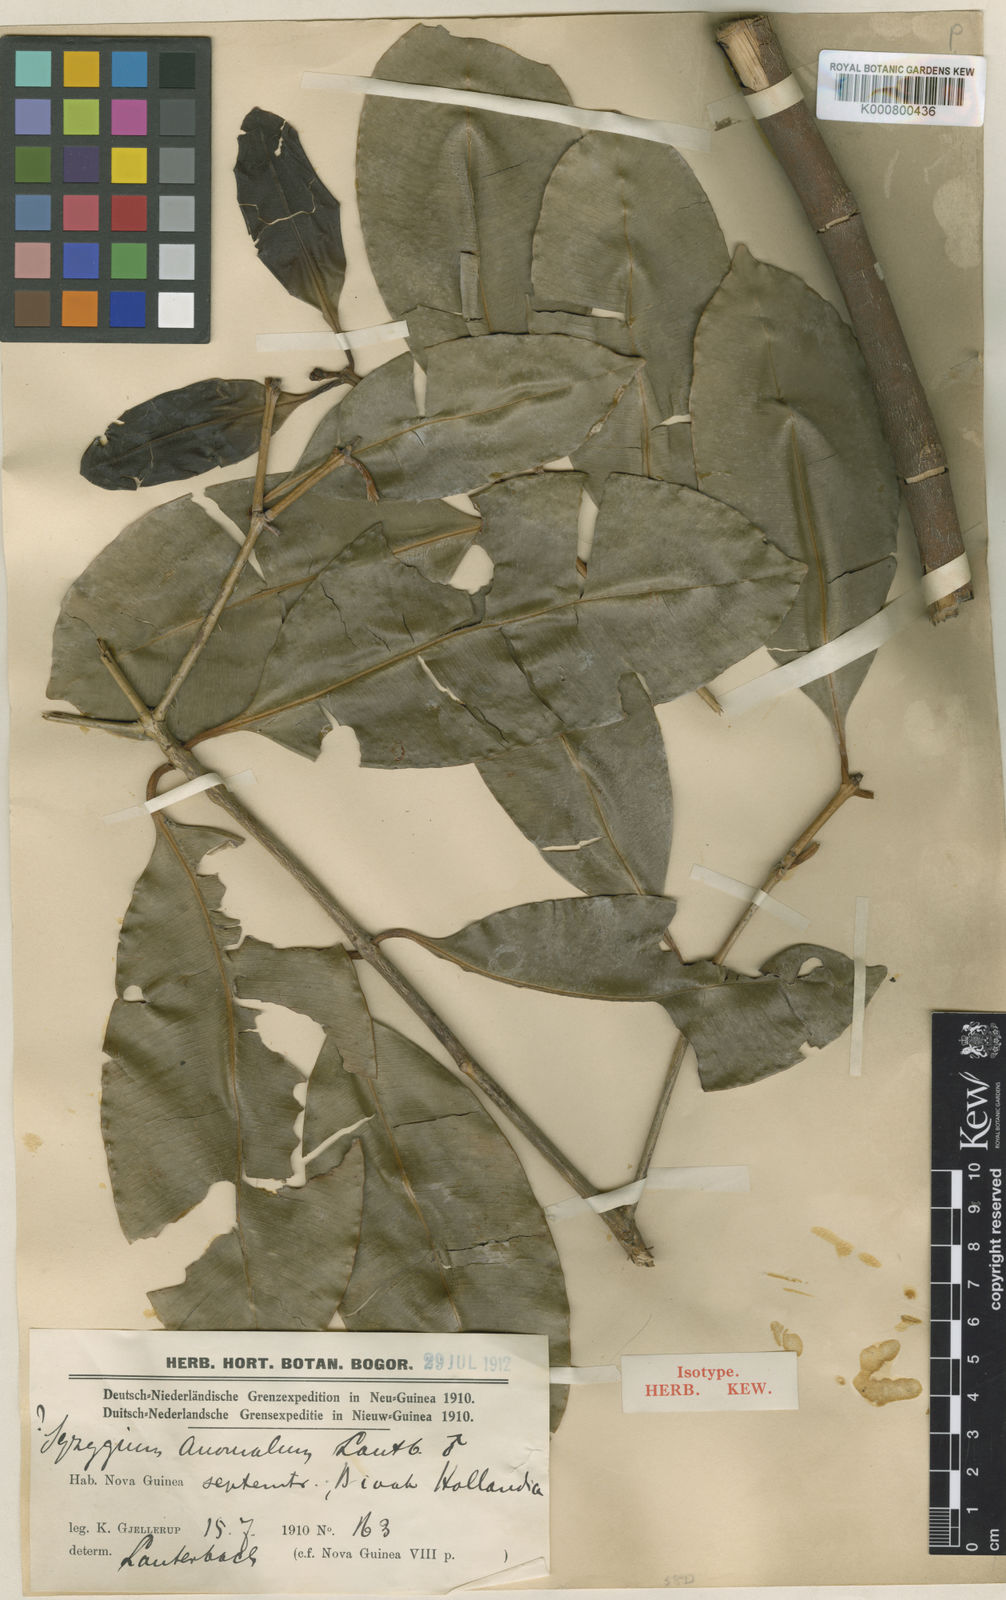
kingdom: Plantae
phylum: Tracheophyta
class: Magnoliopsida
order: Myrtales
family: Myrtaceae
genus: Syzygium
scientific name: Syzygium anomalum
